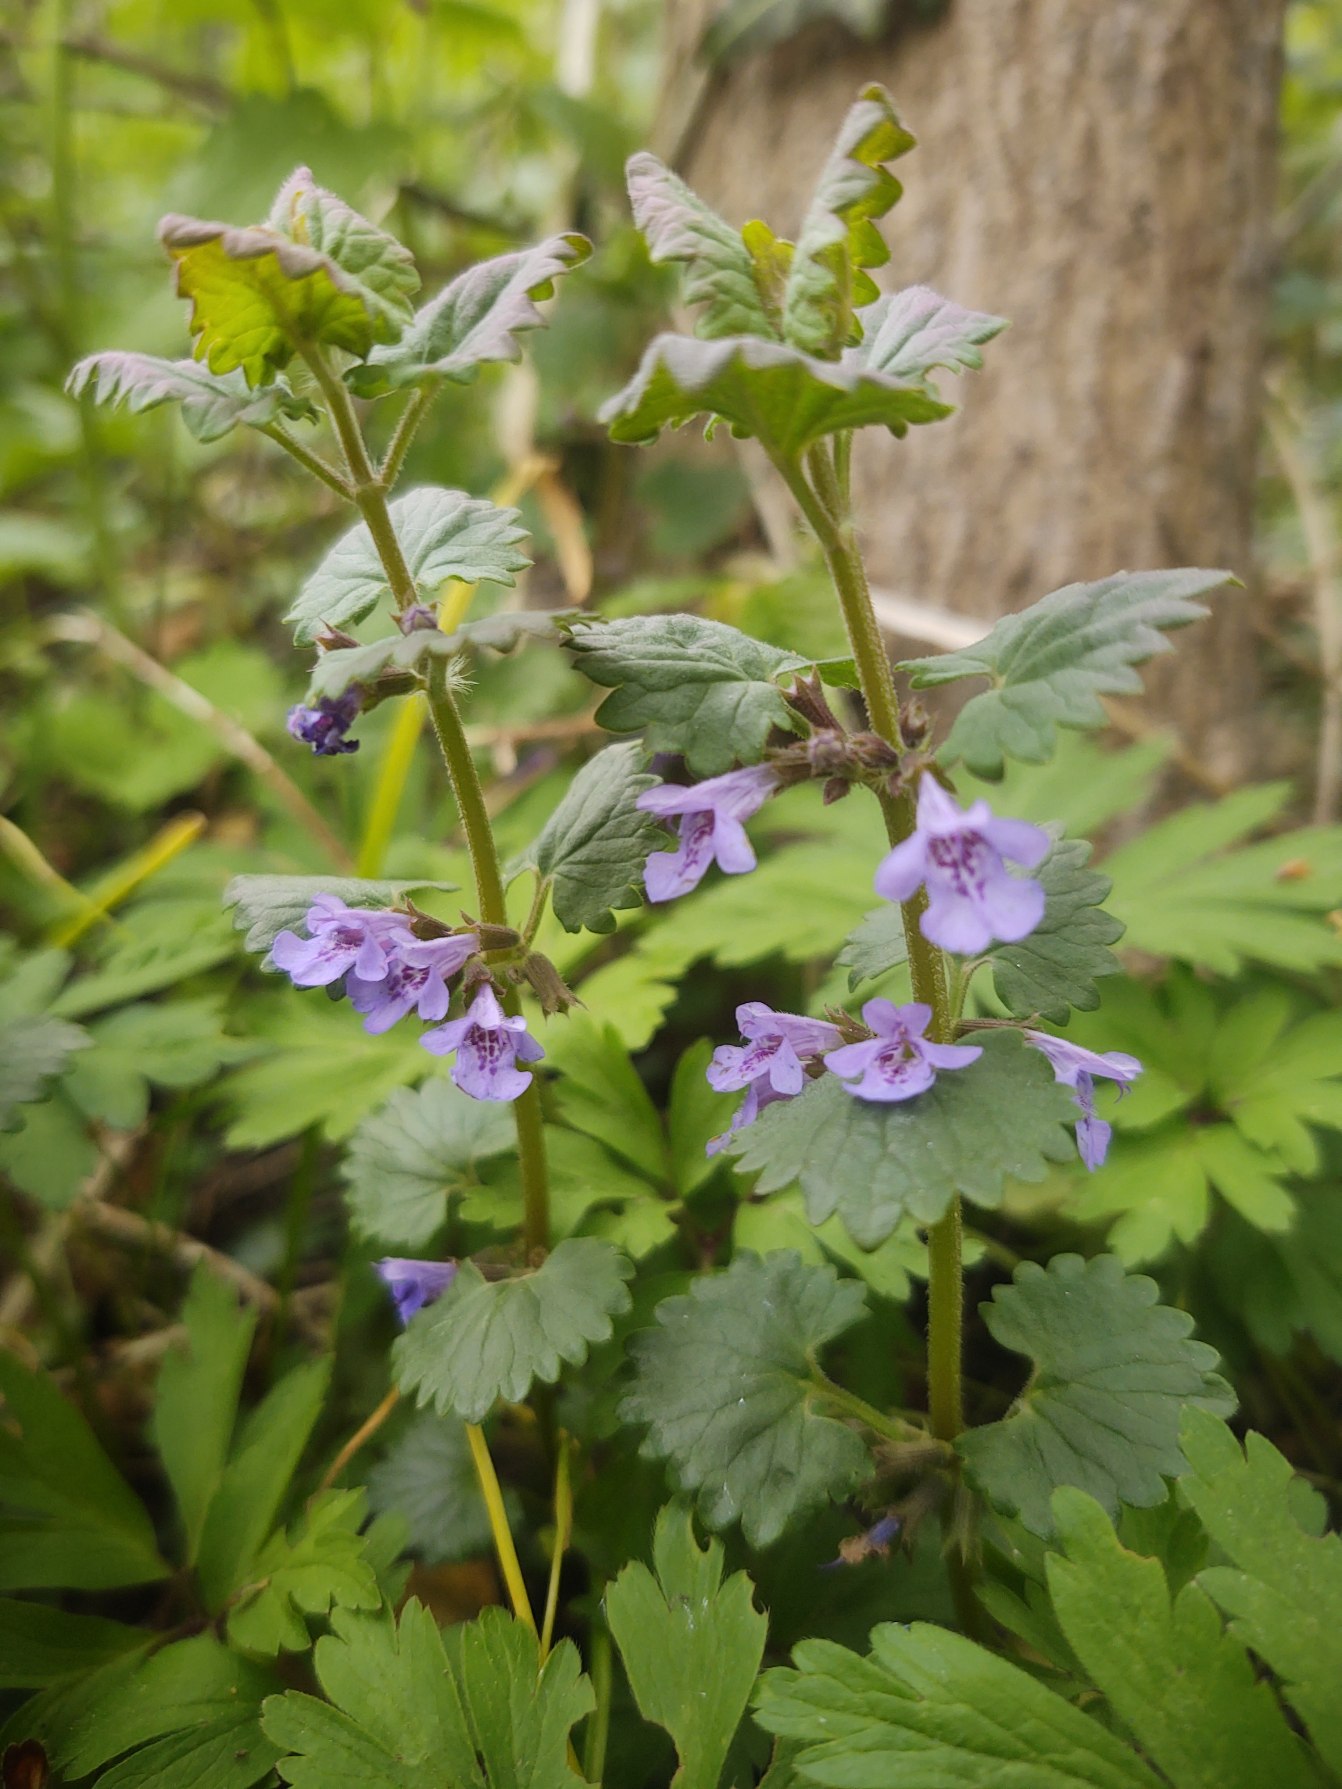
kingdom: Plantae
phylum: Tracheophyta
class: Magnoliopsida
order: Lamiales
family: Lamiaceae
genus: Glechoma
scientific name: Glechoma hederacea
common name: Korsknap
